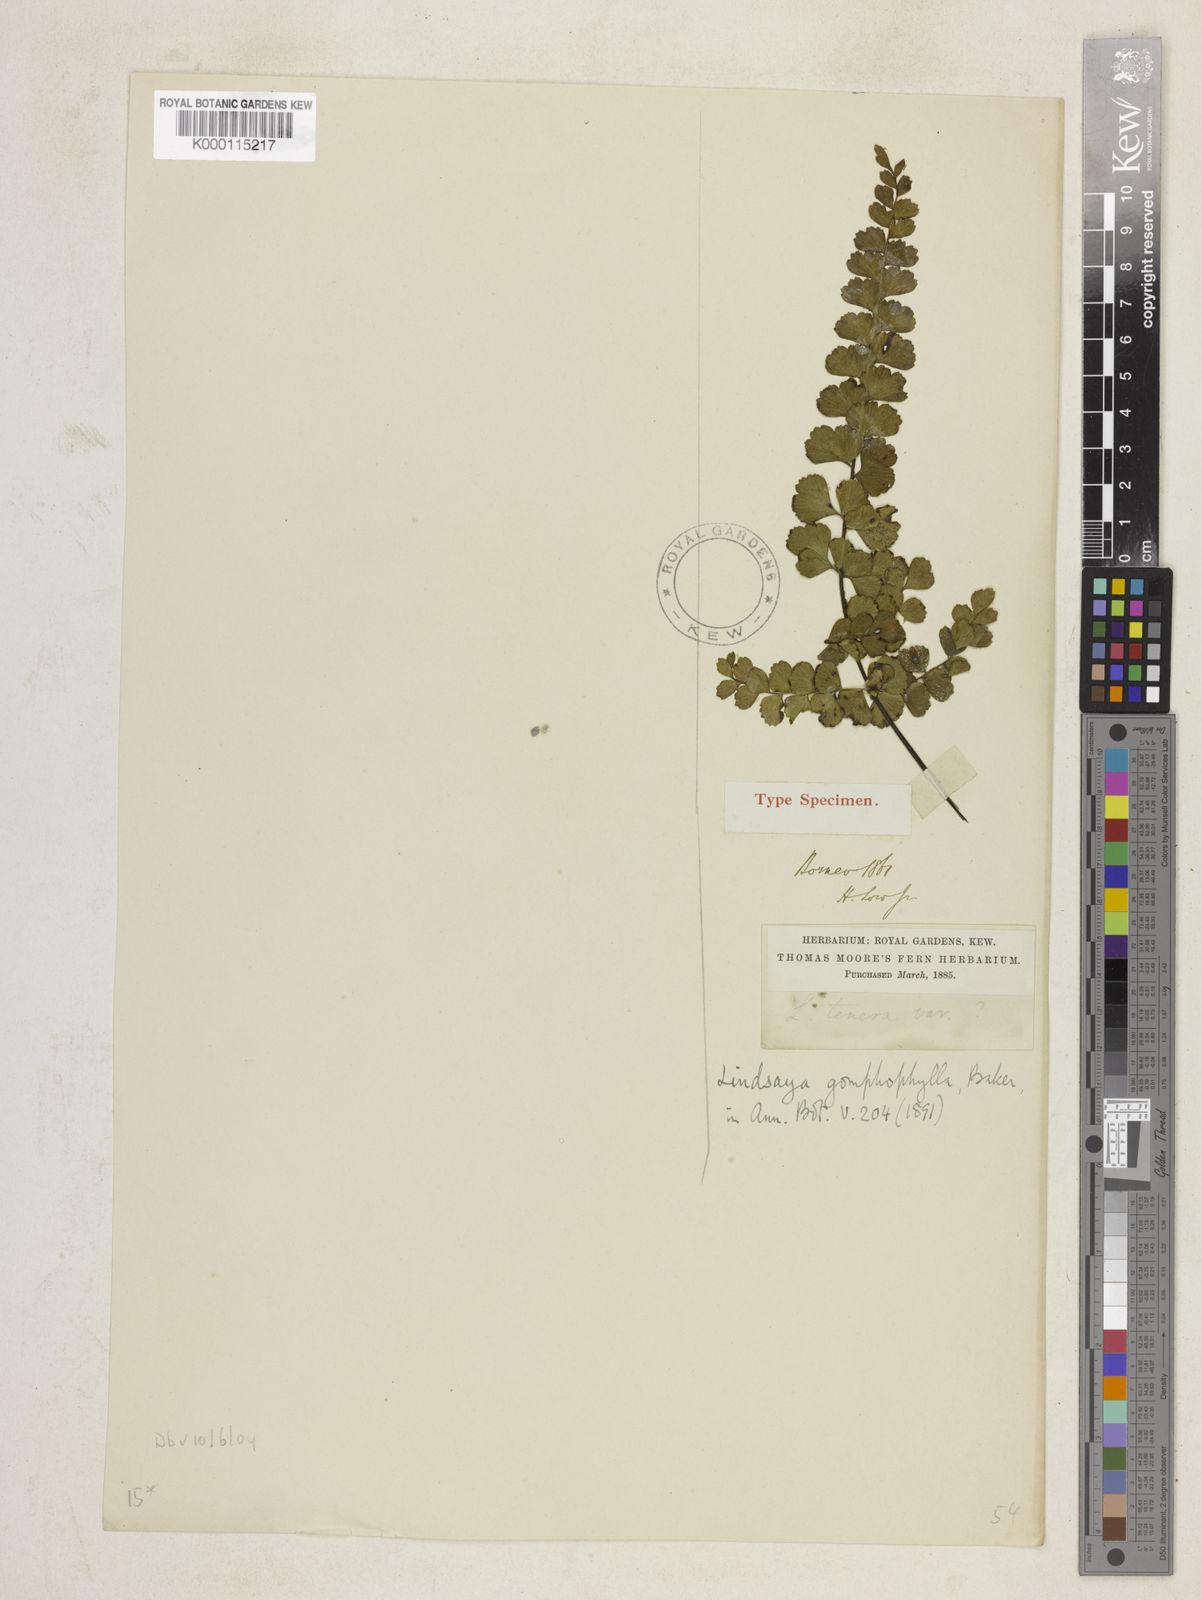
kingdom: Plantae
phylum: Tracheophyta
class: Polypodiopsida
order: Polypodiales
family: Lindsaeaceae
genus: Lindsaea
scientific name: Lindsaea gomphophylla
